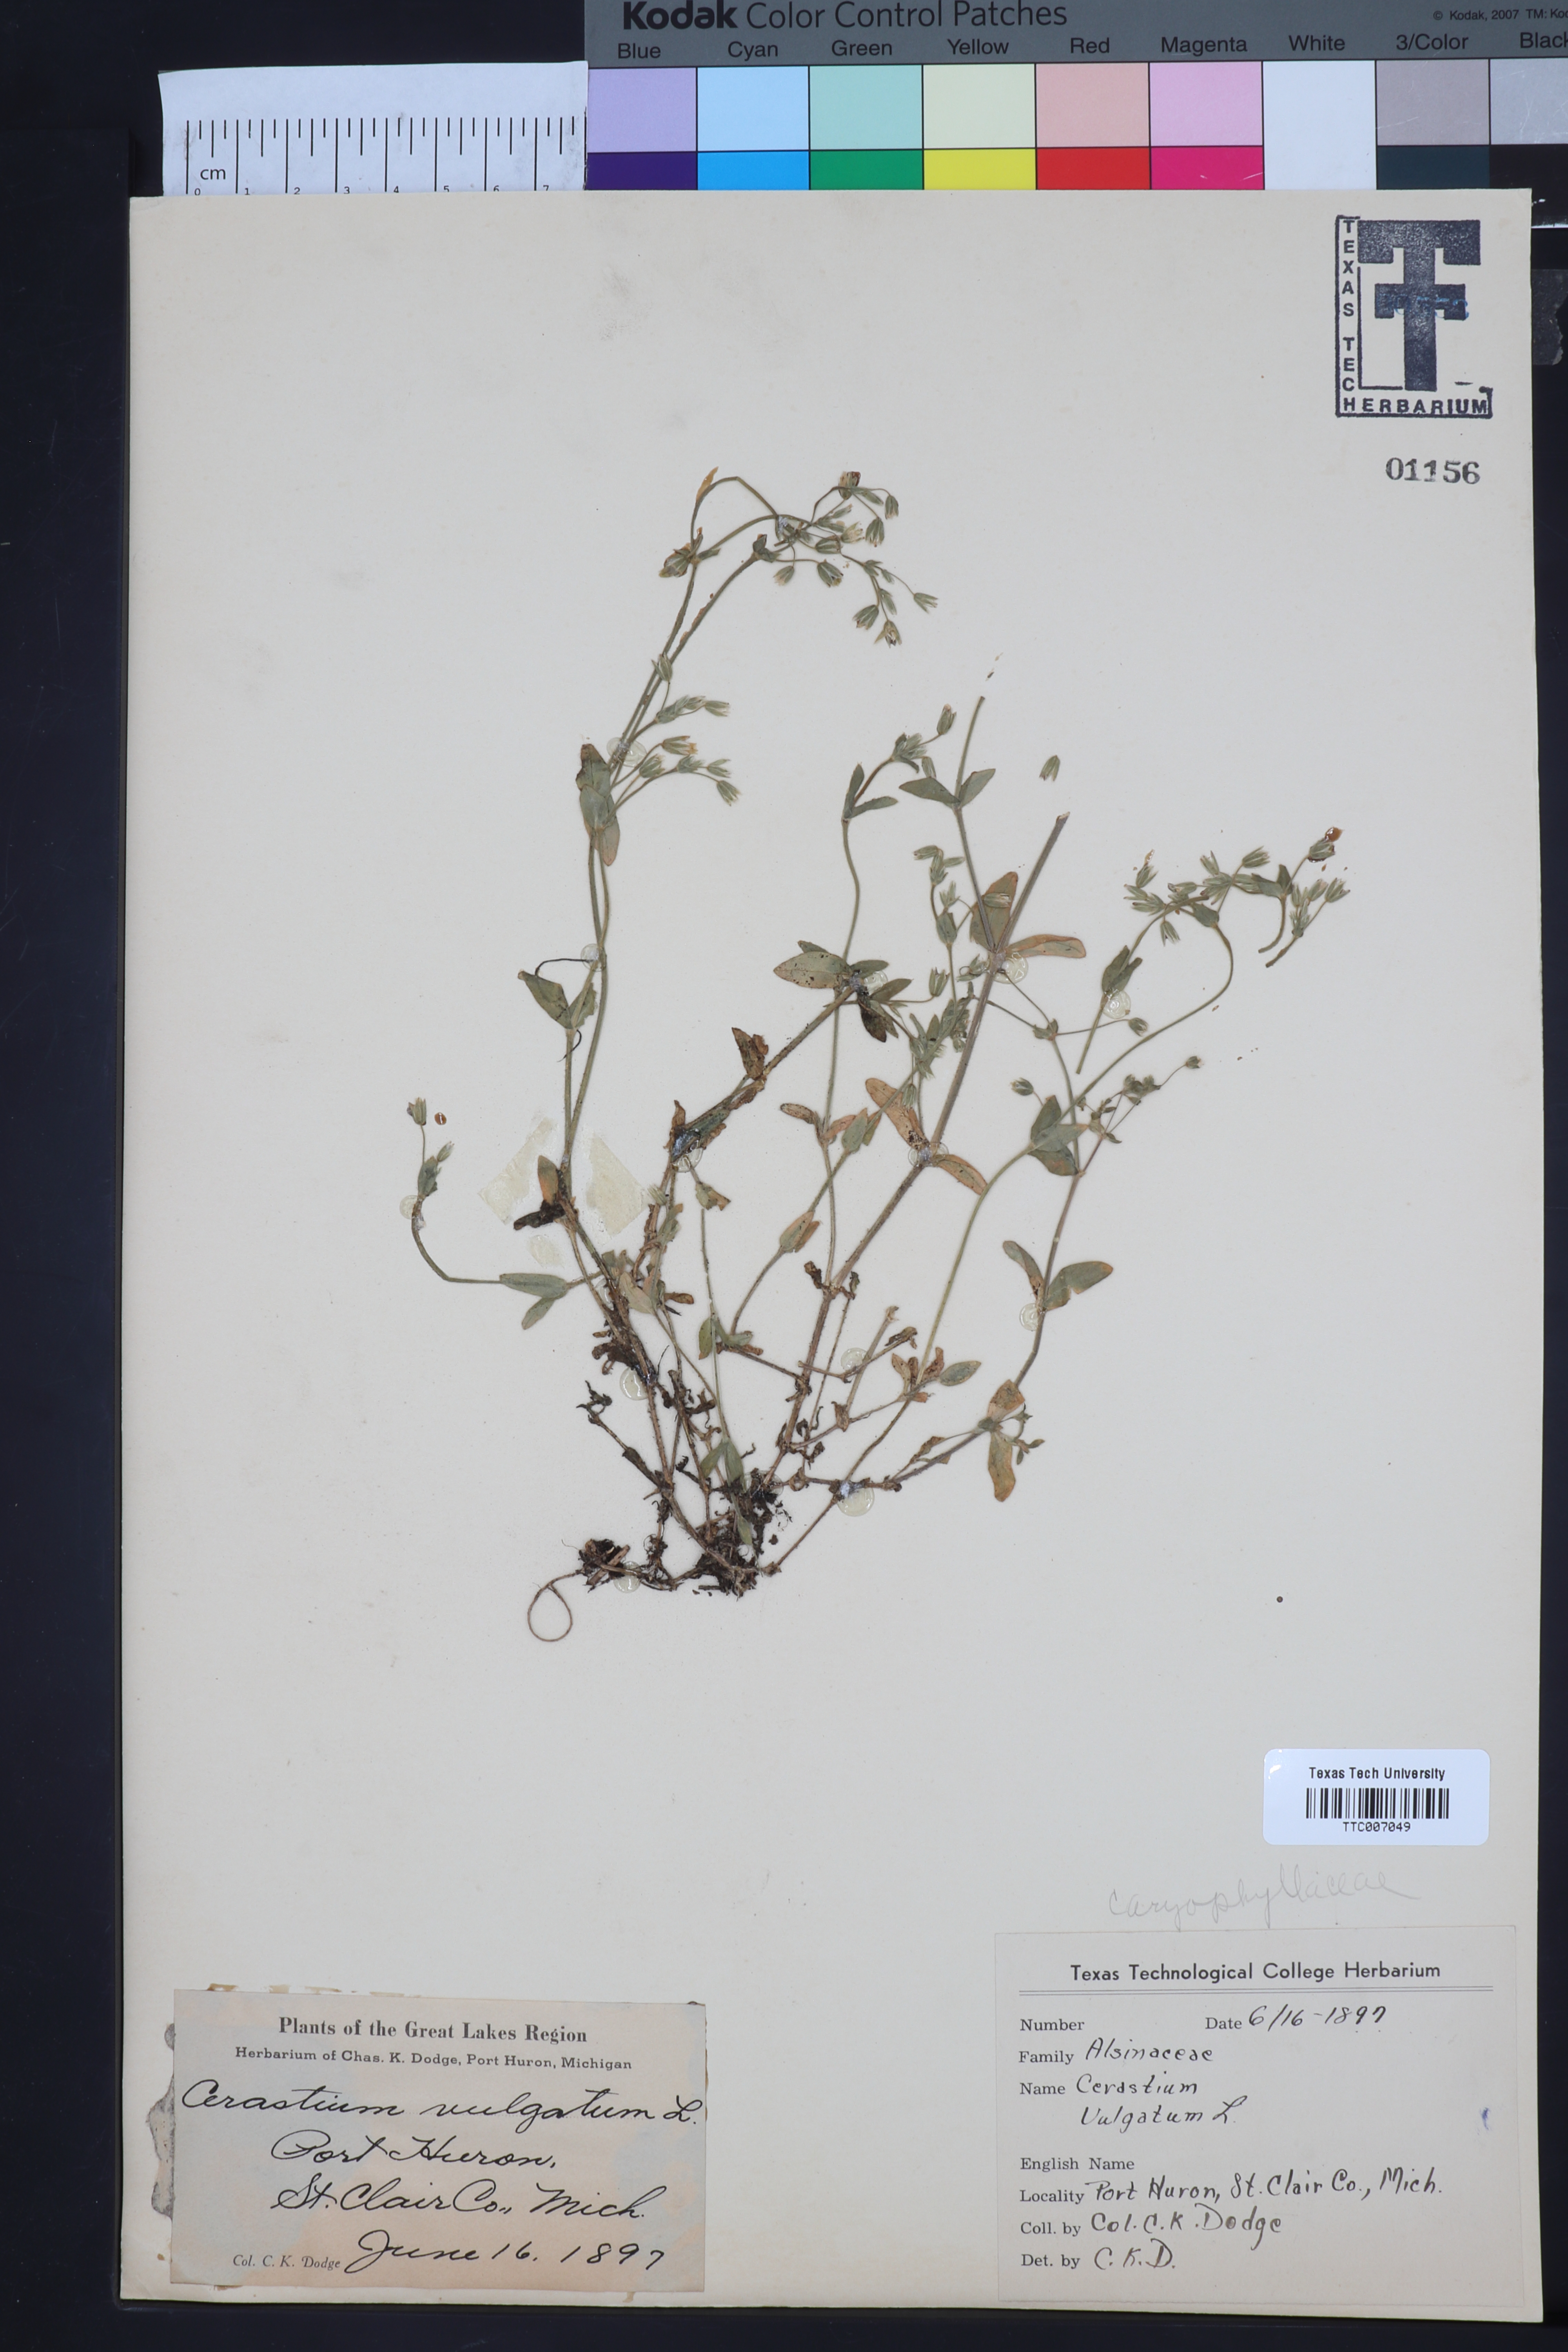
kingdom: Plantae
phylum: Tracheophyta
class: Magnoliopsida
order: Caryophyllales
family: Caryophyllaceae
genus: Cerastium
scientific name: Cerastium
